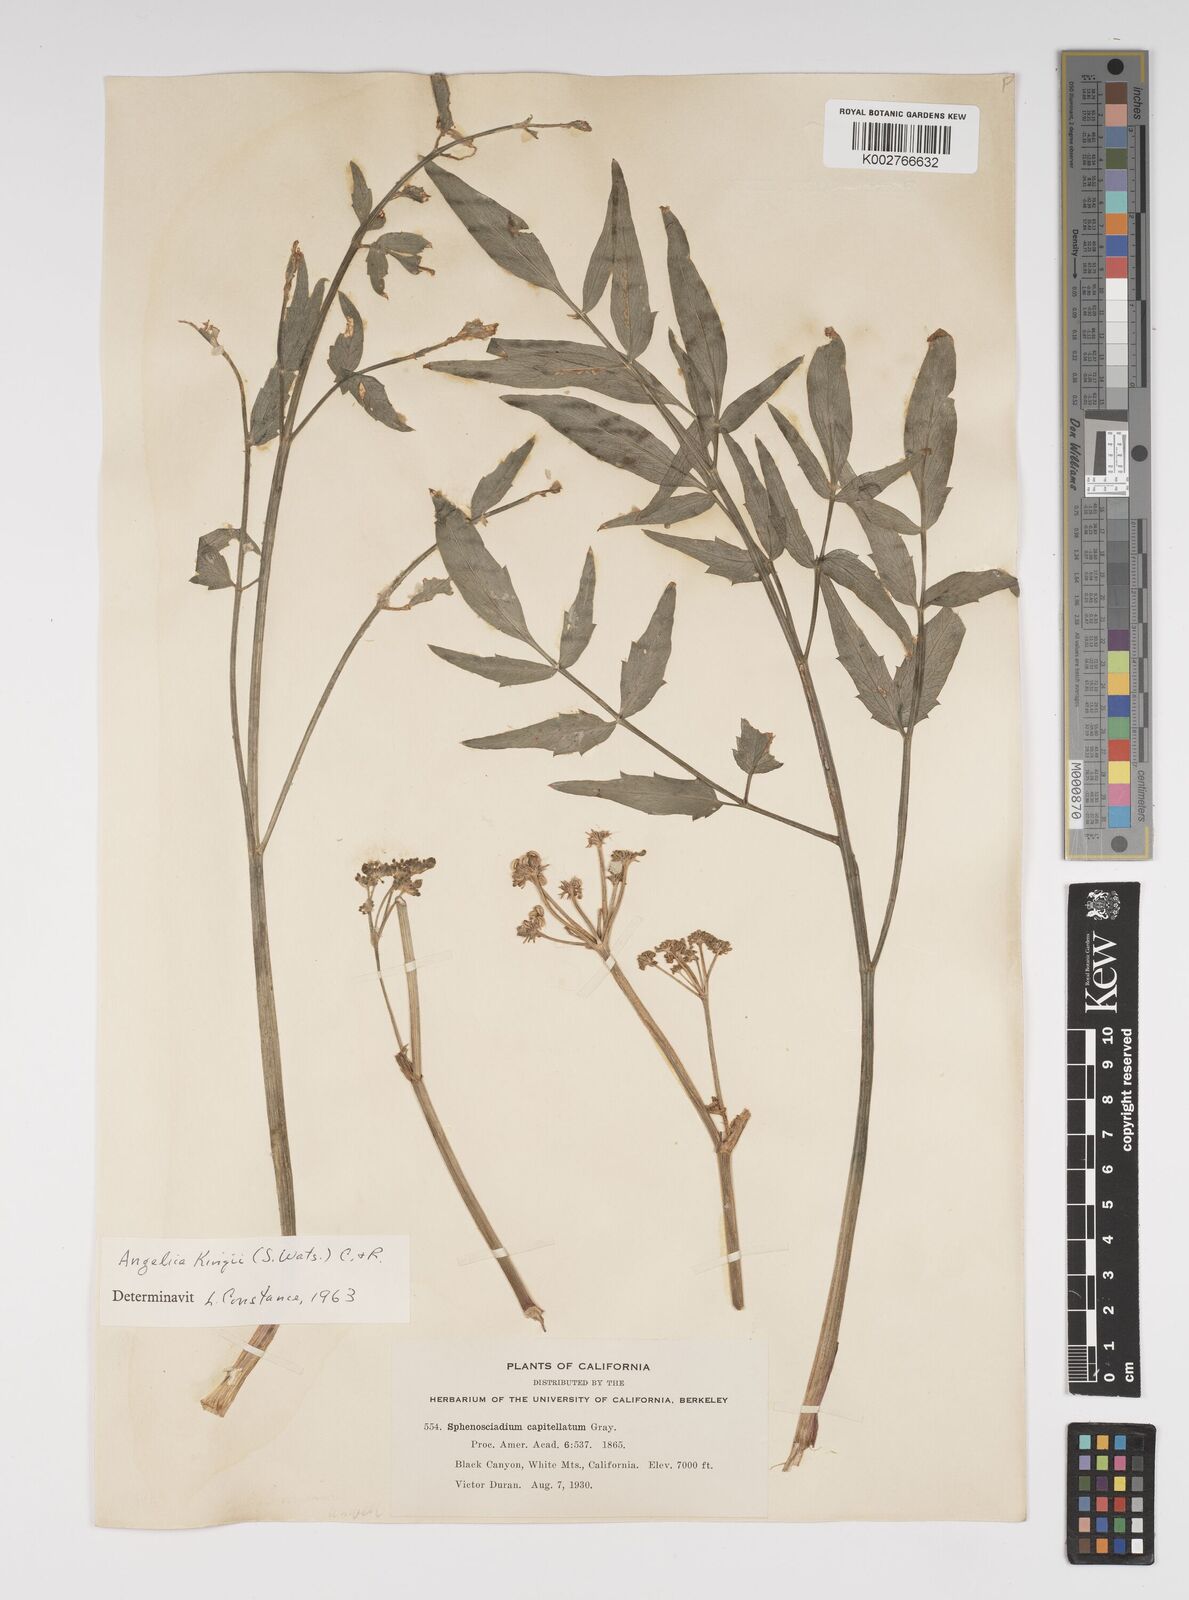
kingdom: Plantae
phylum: Tracheophyta
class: Magnoliopsida
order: Apiales
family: Apiaceae
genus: Angelica
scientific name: Angelica kingii
